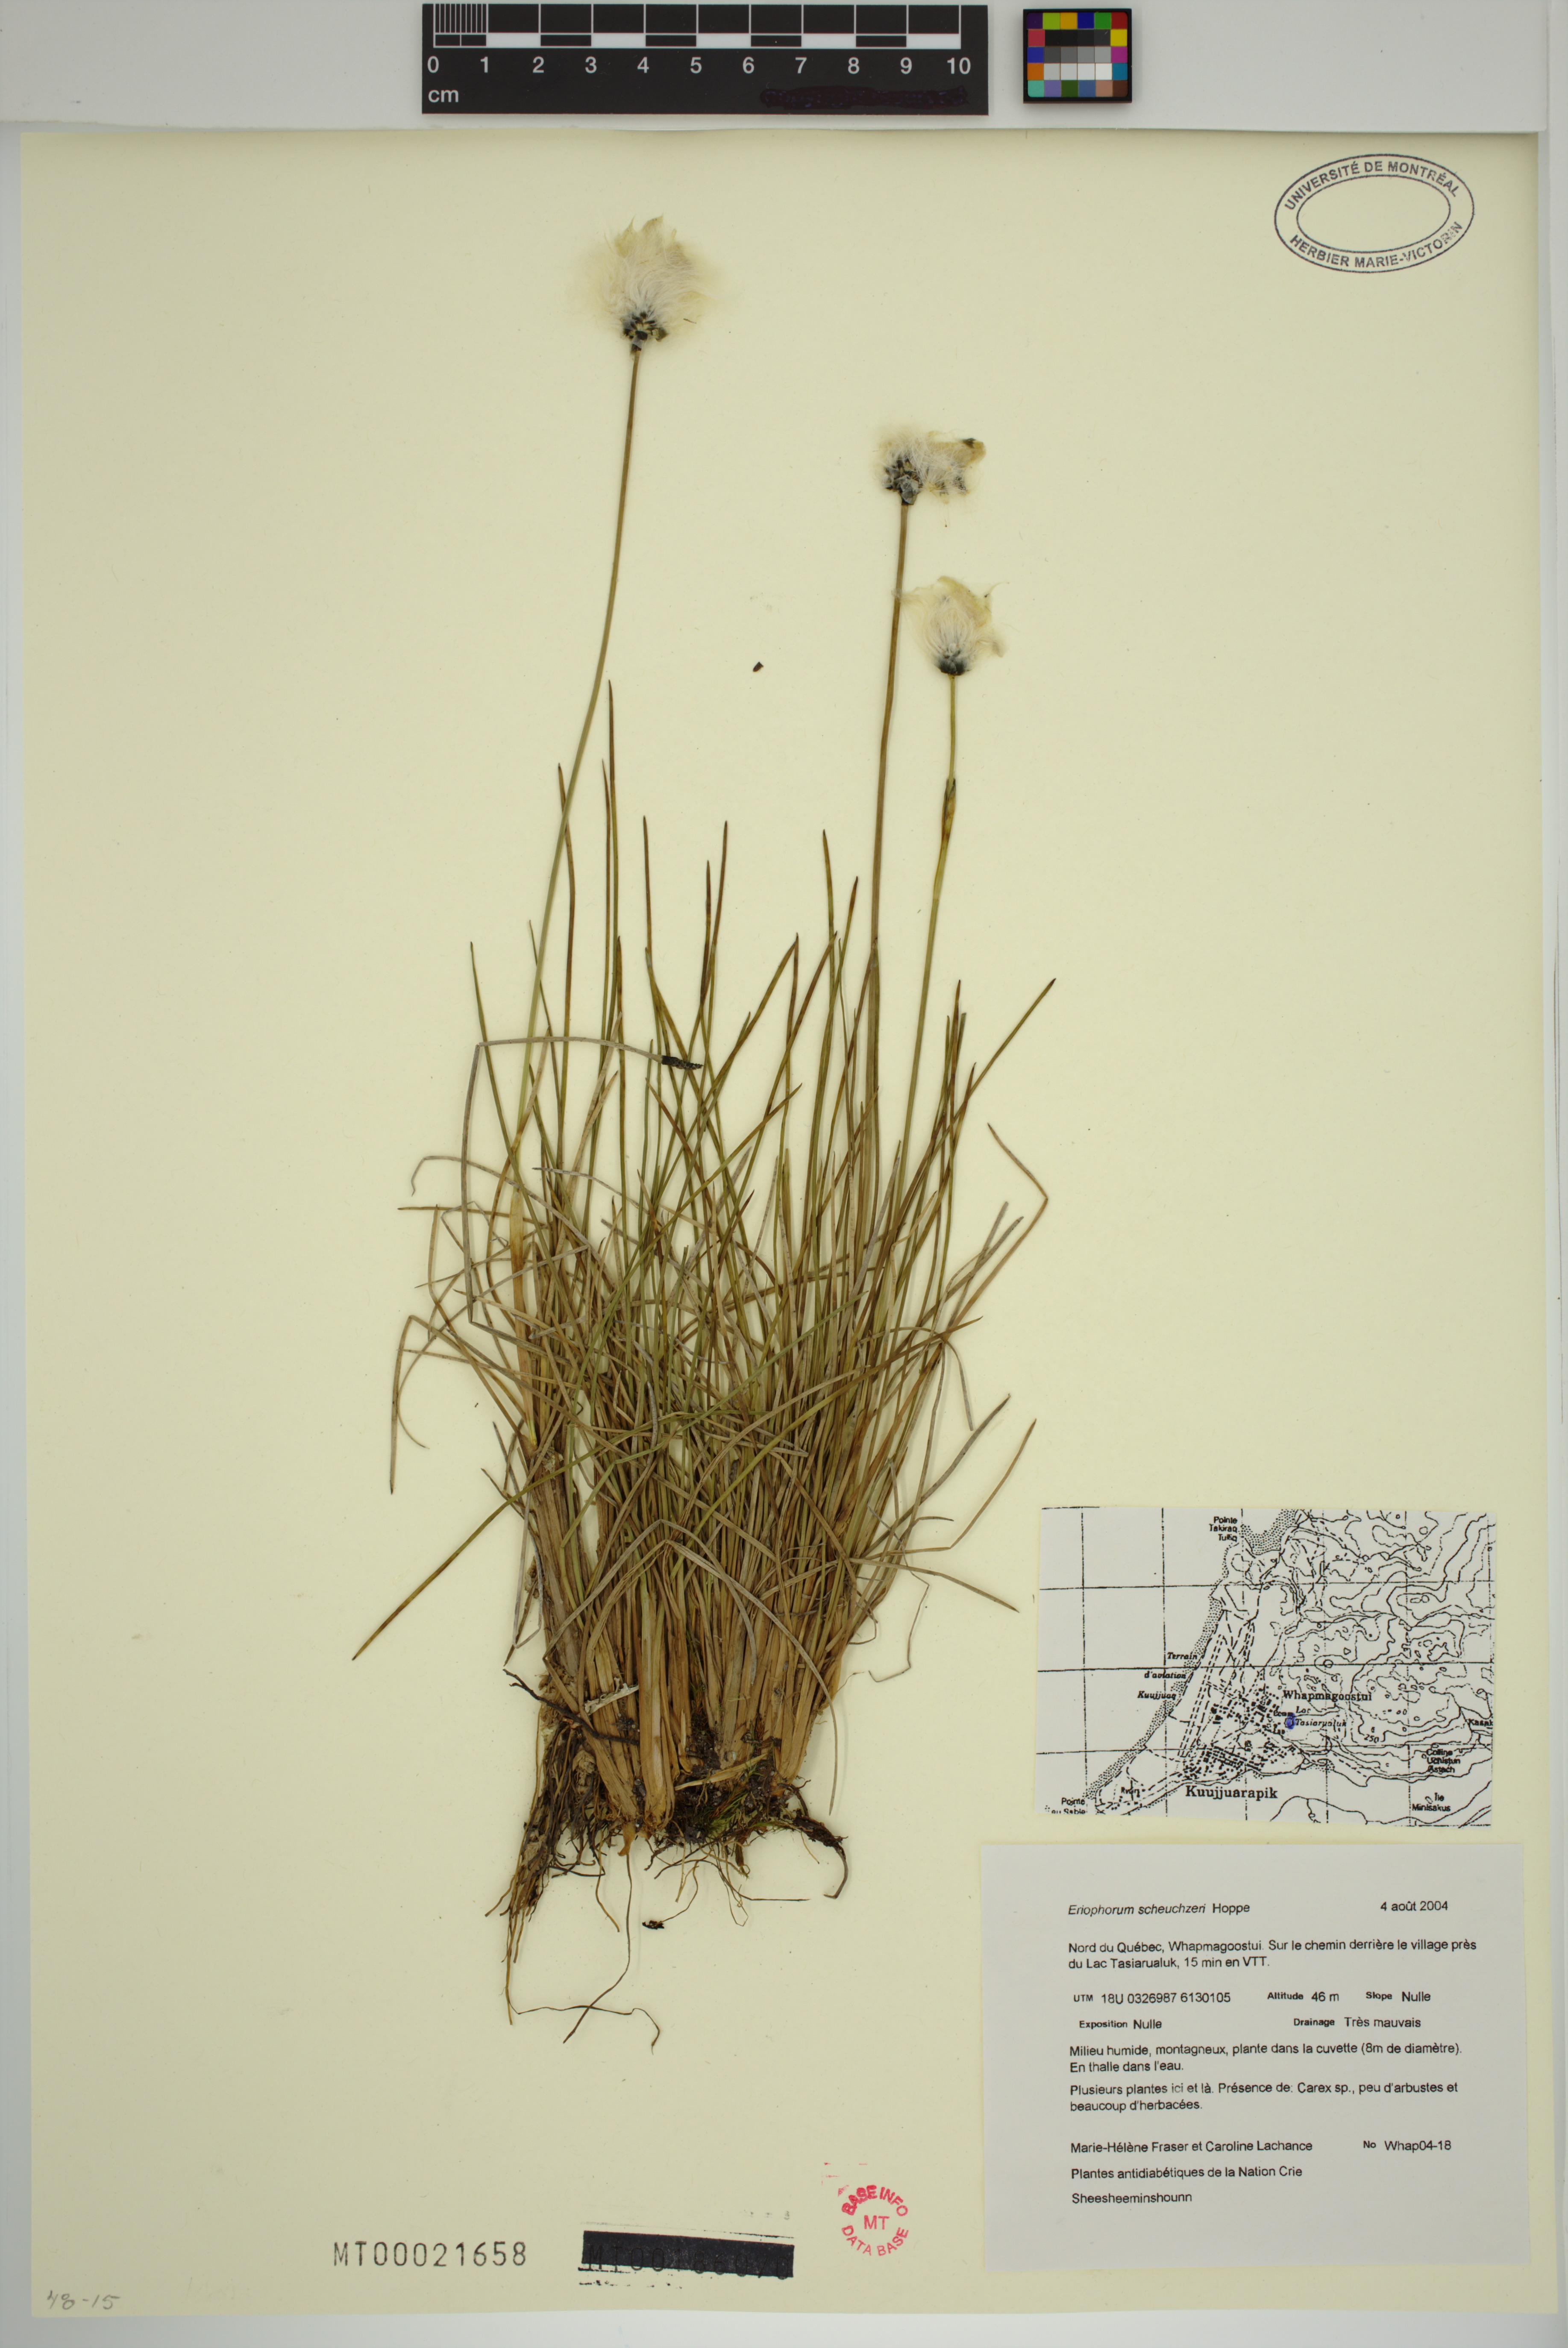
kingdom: Plantae
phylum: Tracheophyta
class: Liliopsida
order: Poales
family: Cyperaceae
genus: Eriophorum
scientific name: Eriophorum scheuchzeri
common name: Scheuchzer's cottongrass
